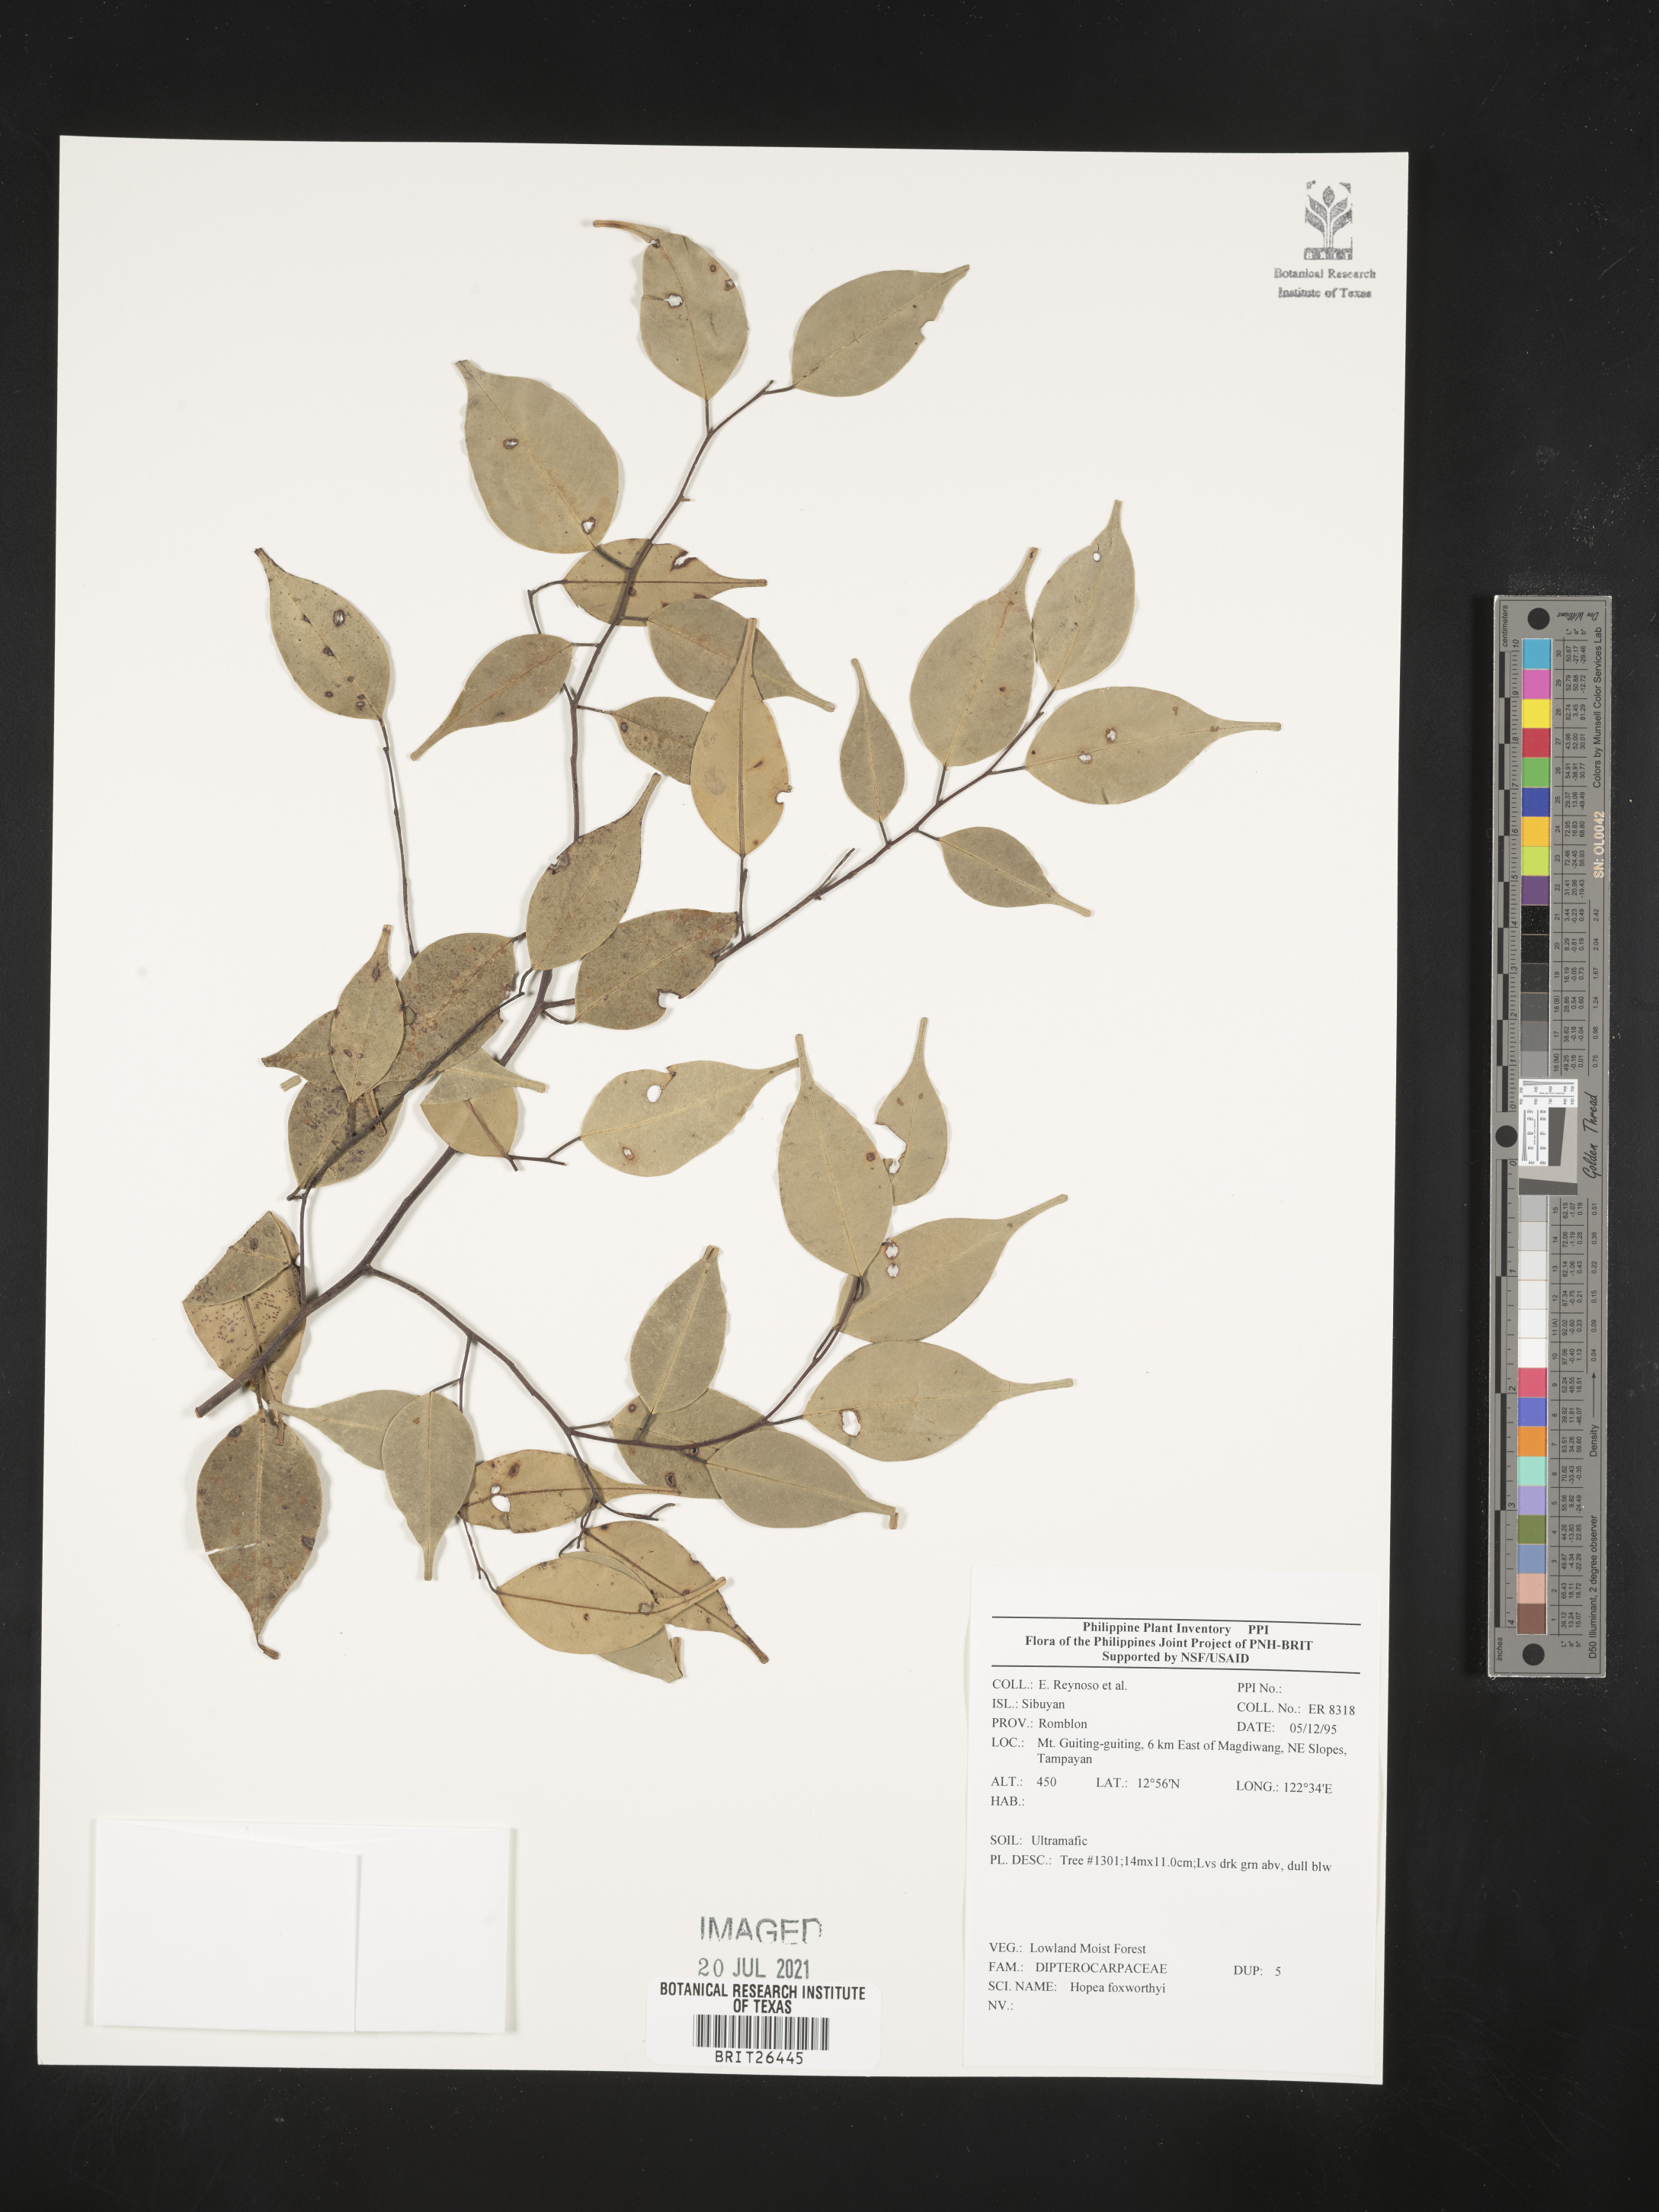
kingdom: Plantae
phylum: Tracheophyta
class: Magnoliopsida
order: Malvales
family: Dipterocarpaceae
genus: Hopea
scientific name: Hopea foxworthyi
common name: Dalingdingan
